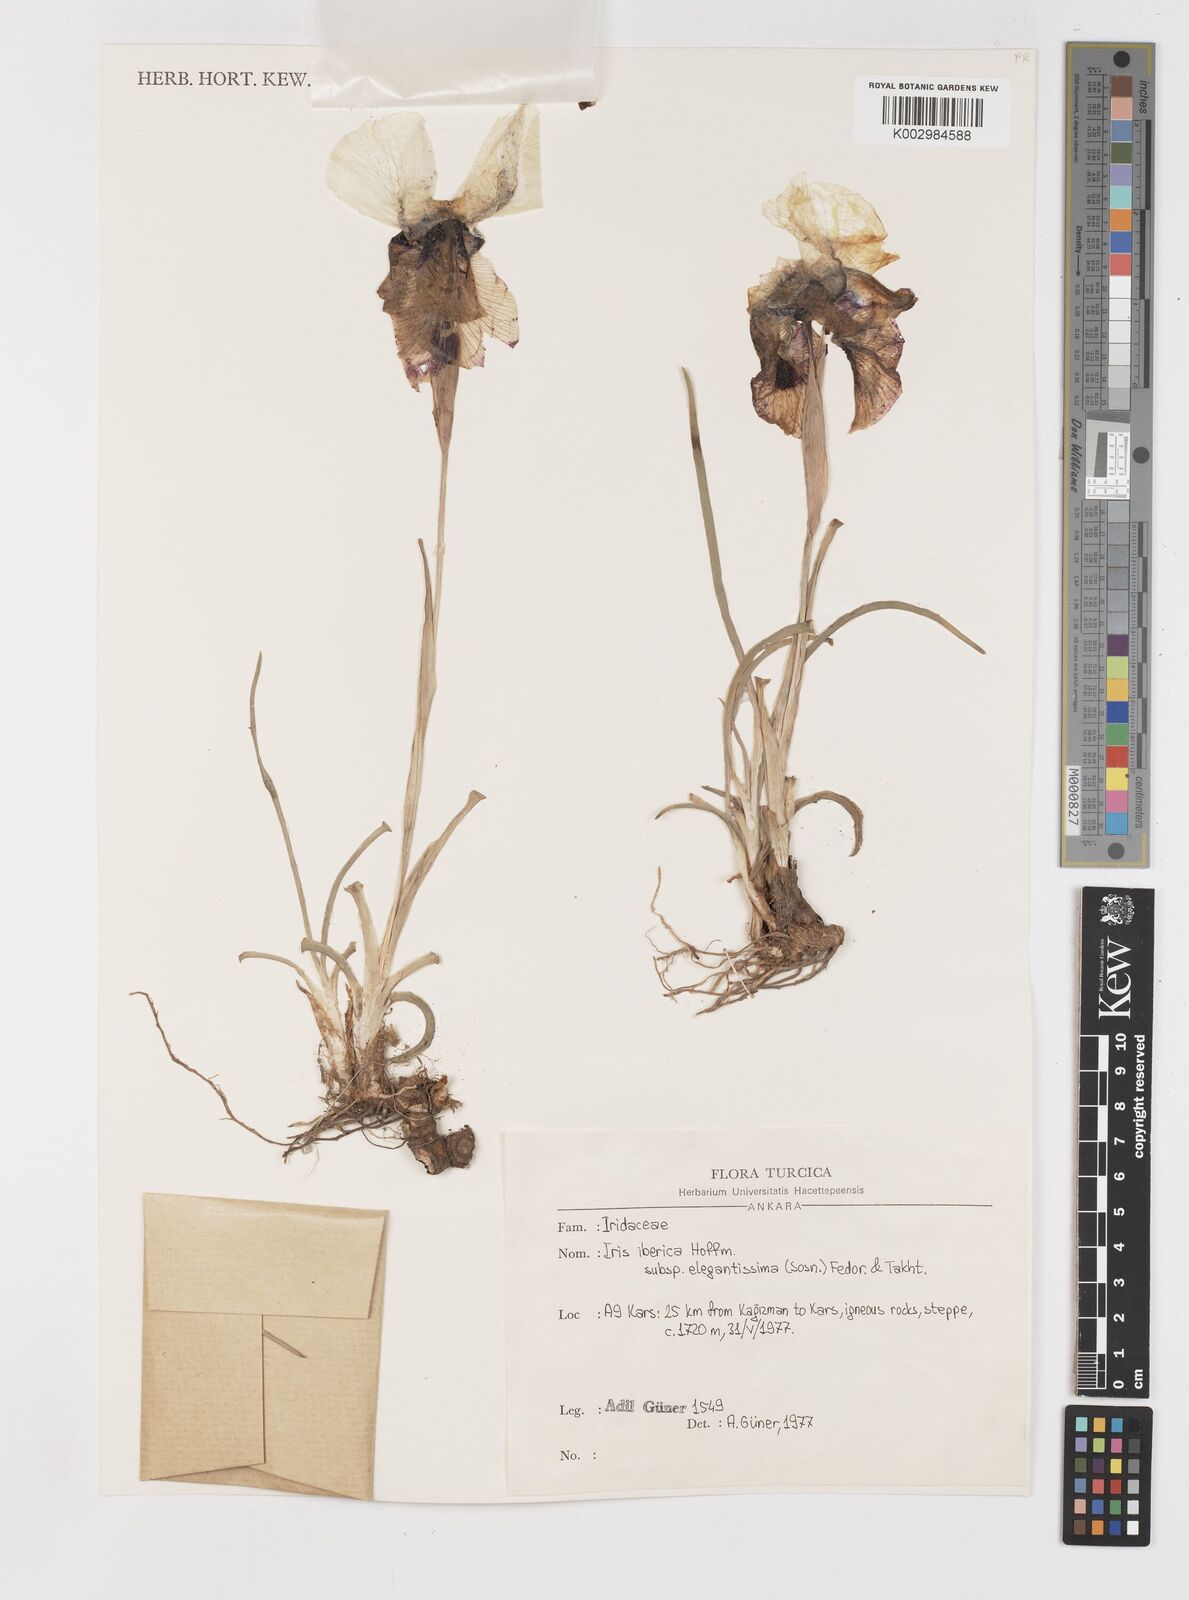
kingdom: Plantae
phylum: Tracheophyta
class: Liliopsida
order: Asparagales
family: Iridaceae
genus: Iris
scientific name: Iris iberica
